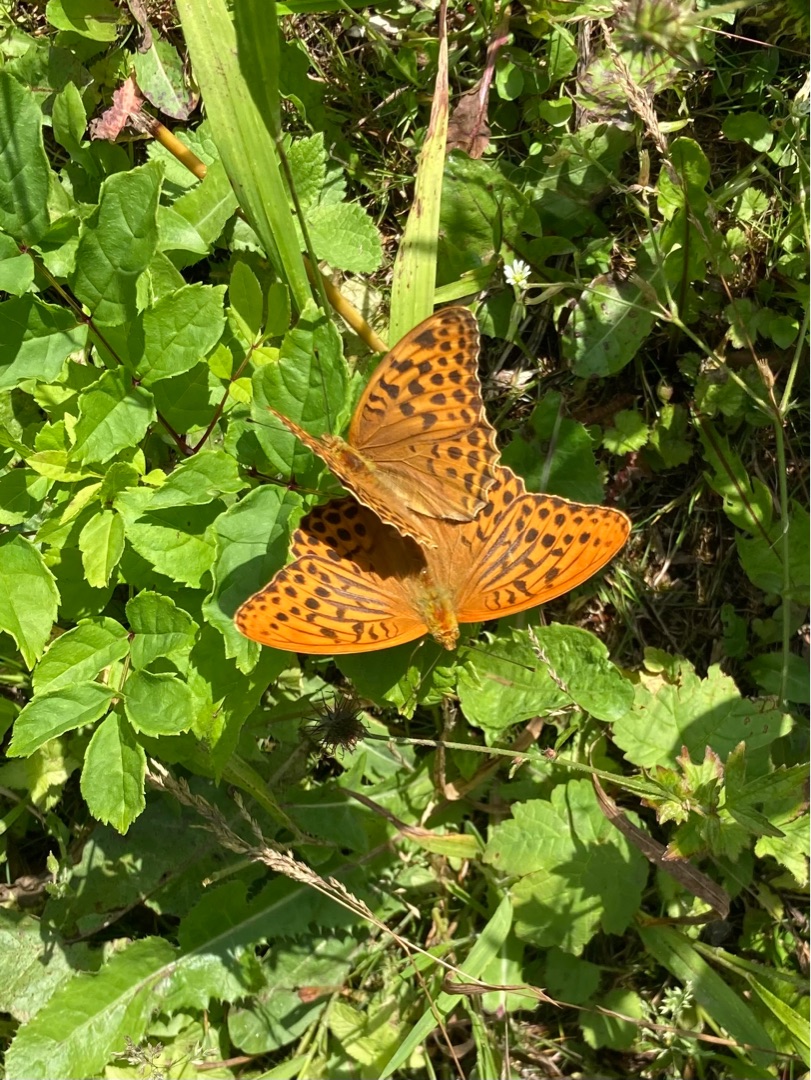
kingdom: Animalia
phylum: Arthropoda
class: Insecta
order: Lepidoptera
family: Nymphalidae
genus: Argynnis
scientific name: Argynnis paphia
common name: Kejserkåbe
